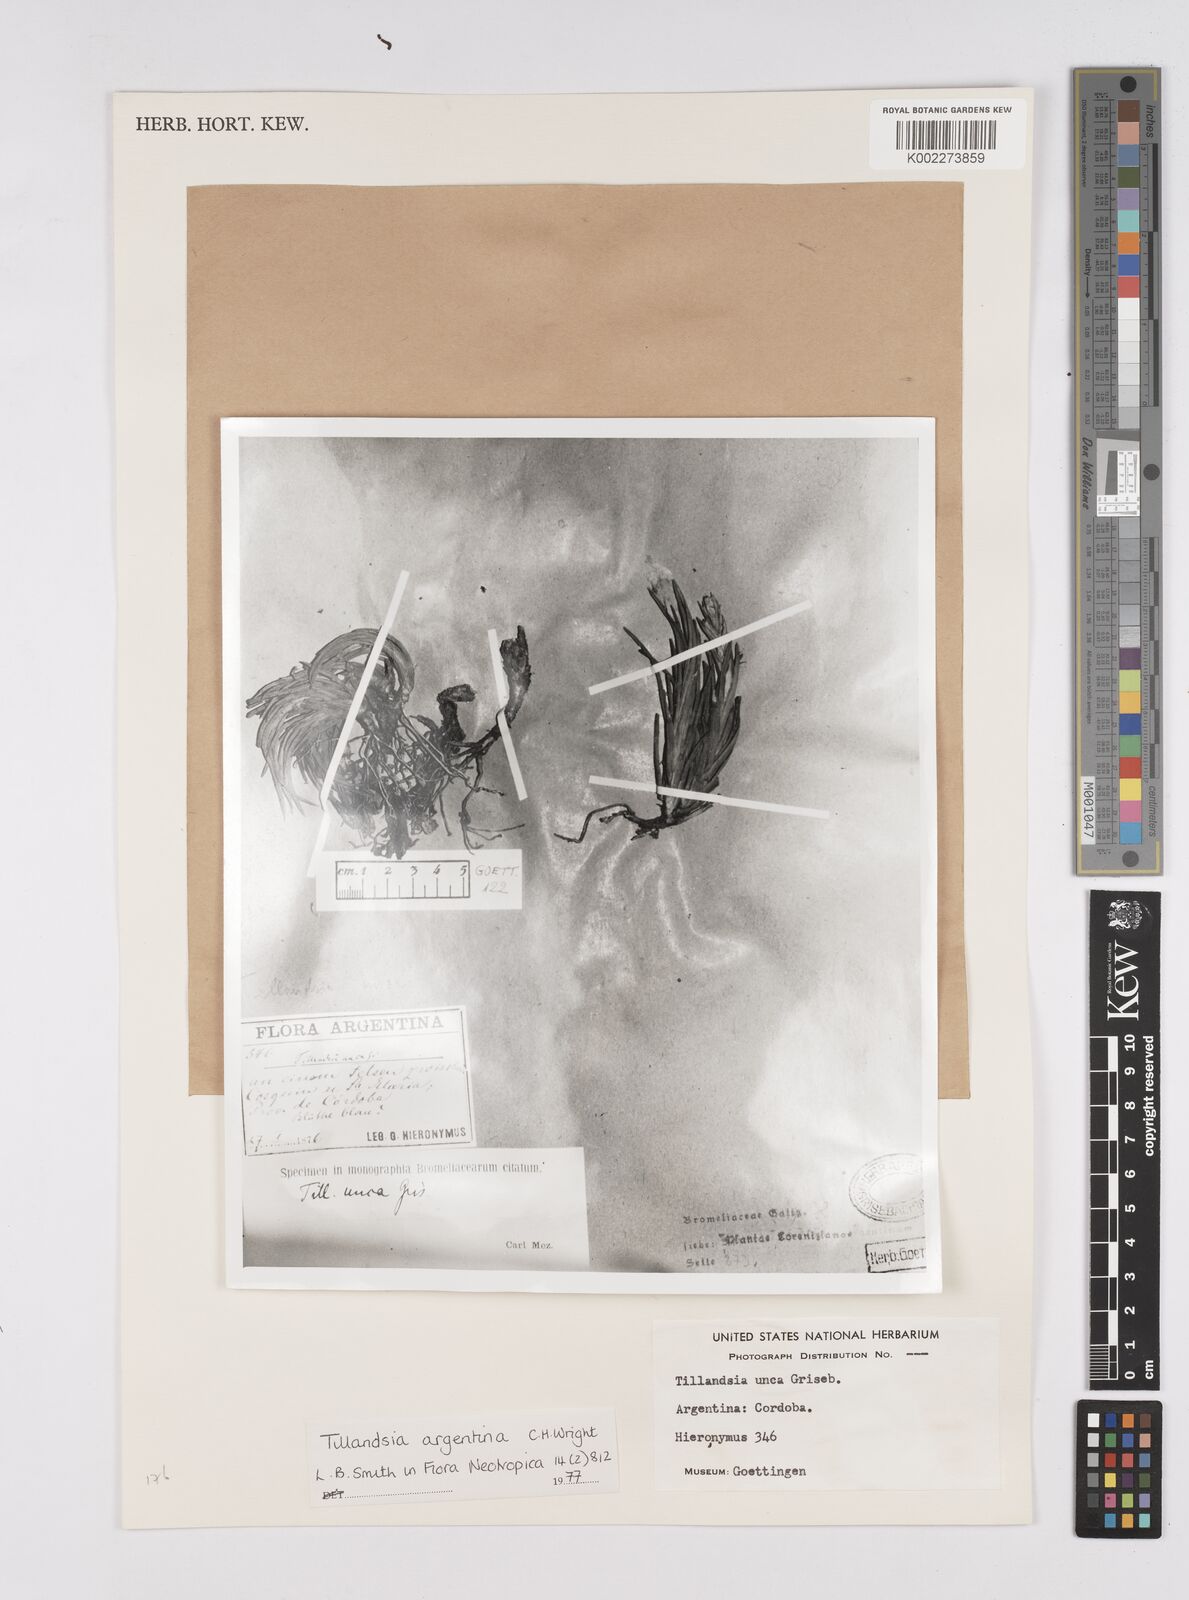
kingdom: Plantae
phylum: Tracheophyta
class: Liliopsida
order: Poales
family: Bromeliaceae
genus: Tillandsia
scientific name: Tillandsia argentina
